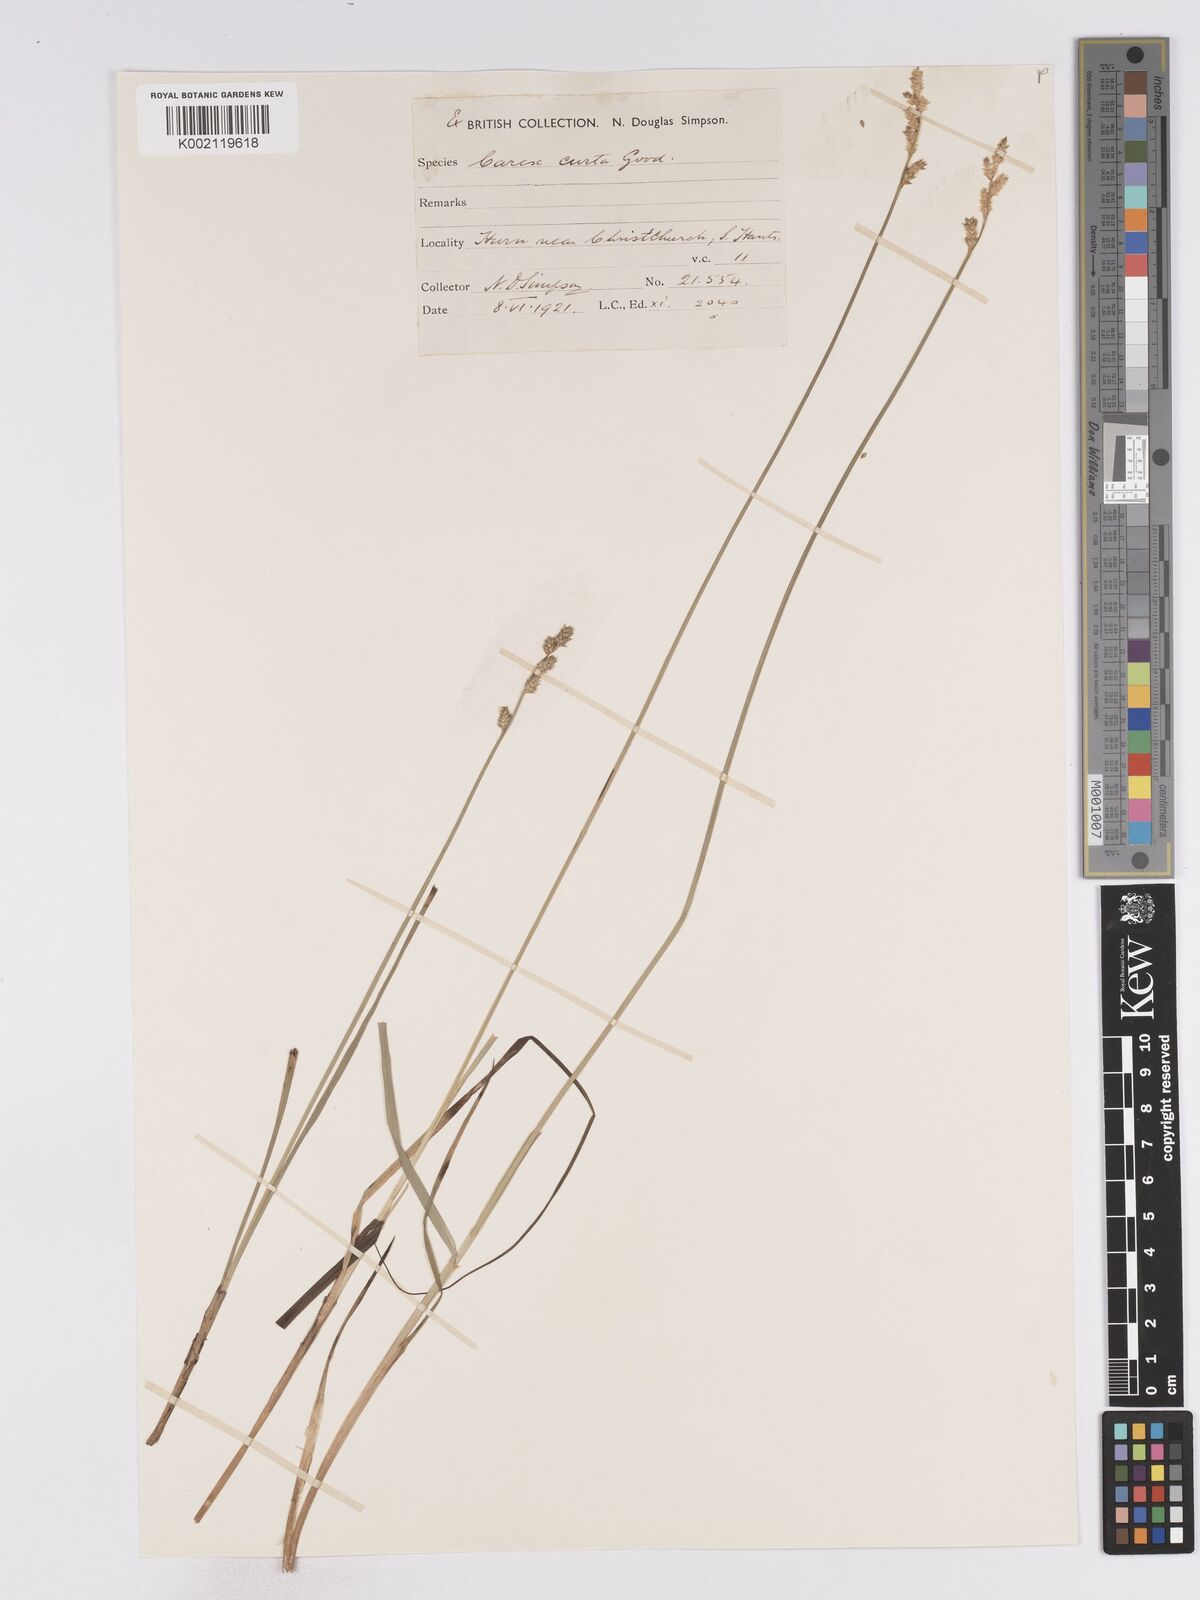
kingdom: Plantae
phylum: Tracheophyta
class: Liliopsida
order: Poales
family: Cyperaceae
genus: Carex
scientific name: Carex curta
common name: White sedge
